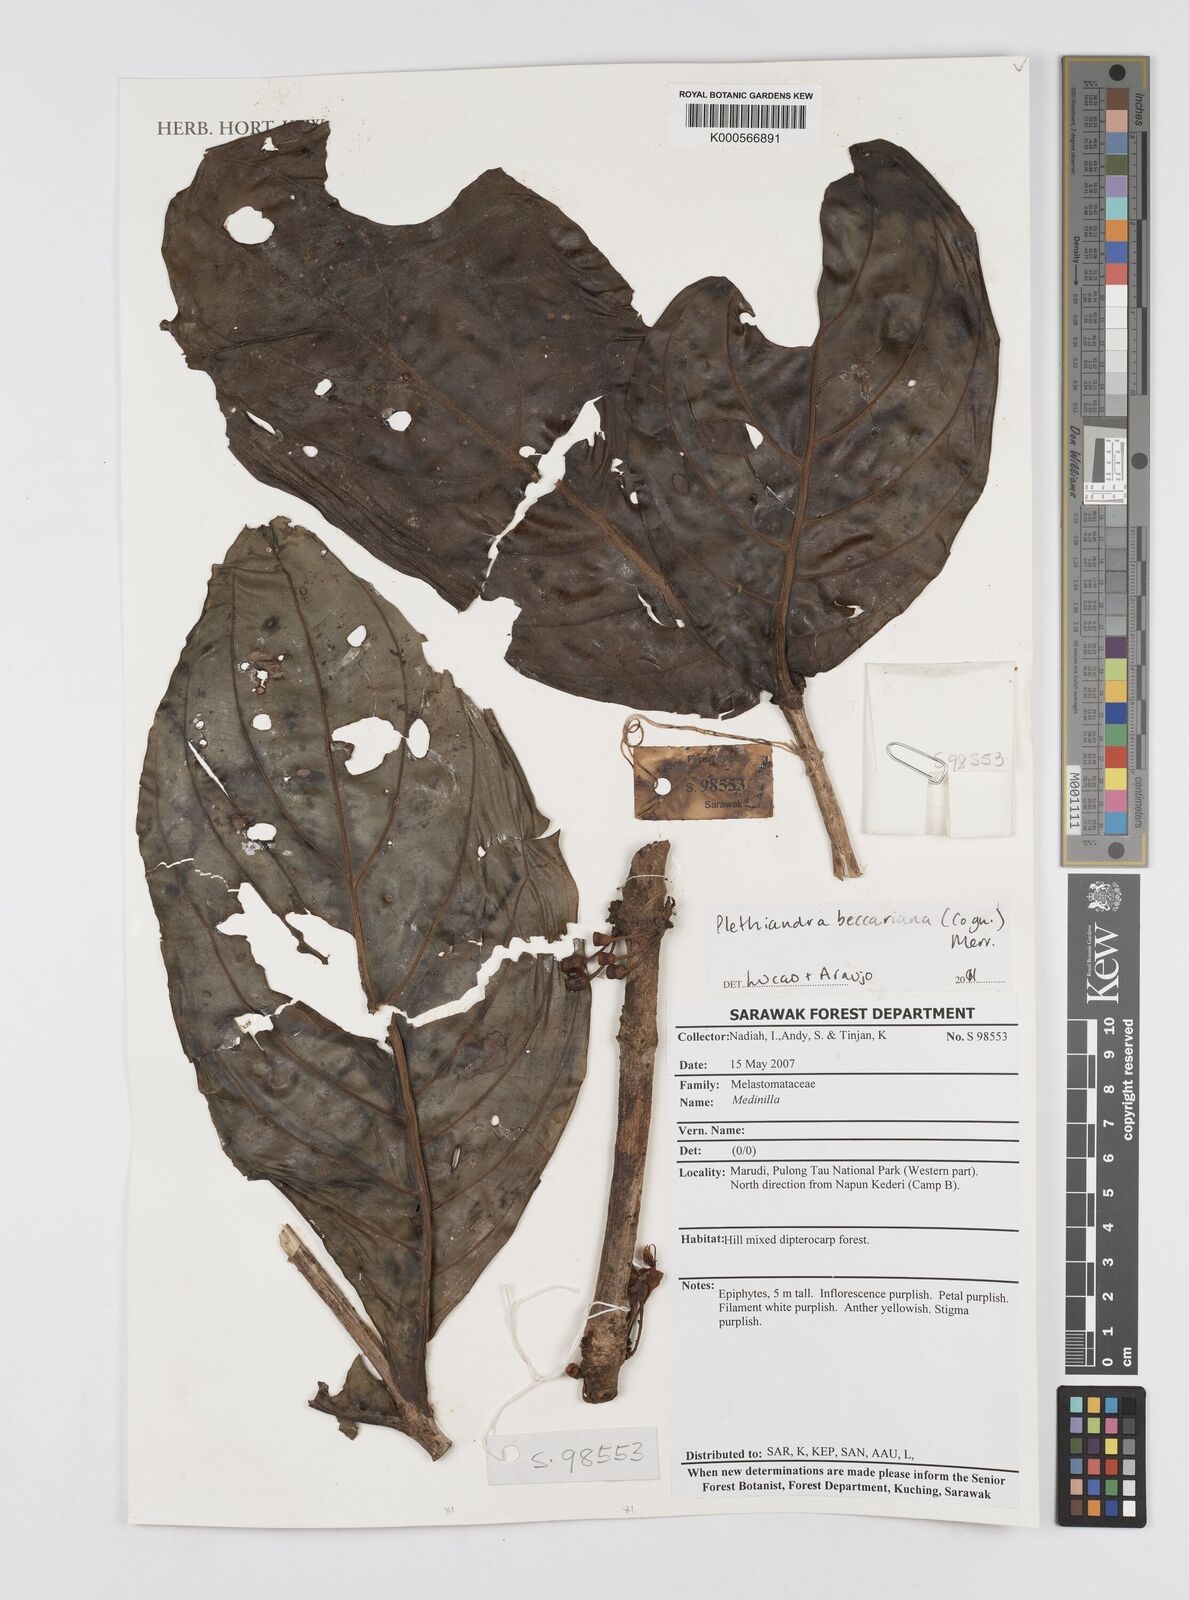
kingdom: Plantae
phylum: Tracheophyta
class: Magnoliopsida
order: Myrtales
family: Melastomataceae
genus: Plethiandra
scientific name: Plethiandra beccariana
